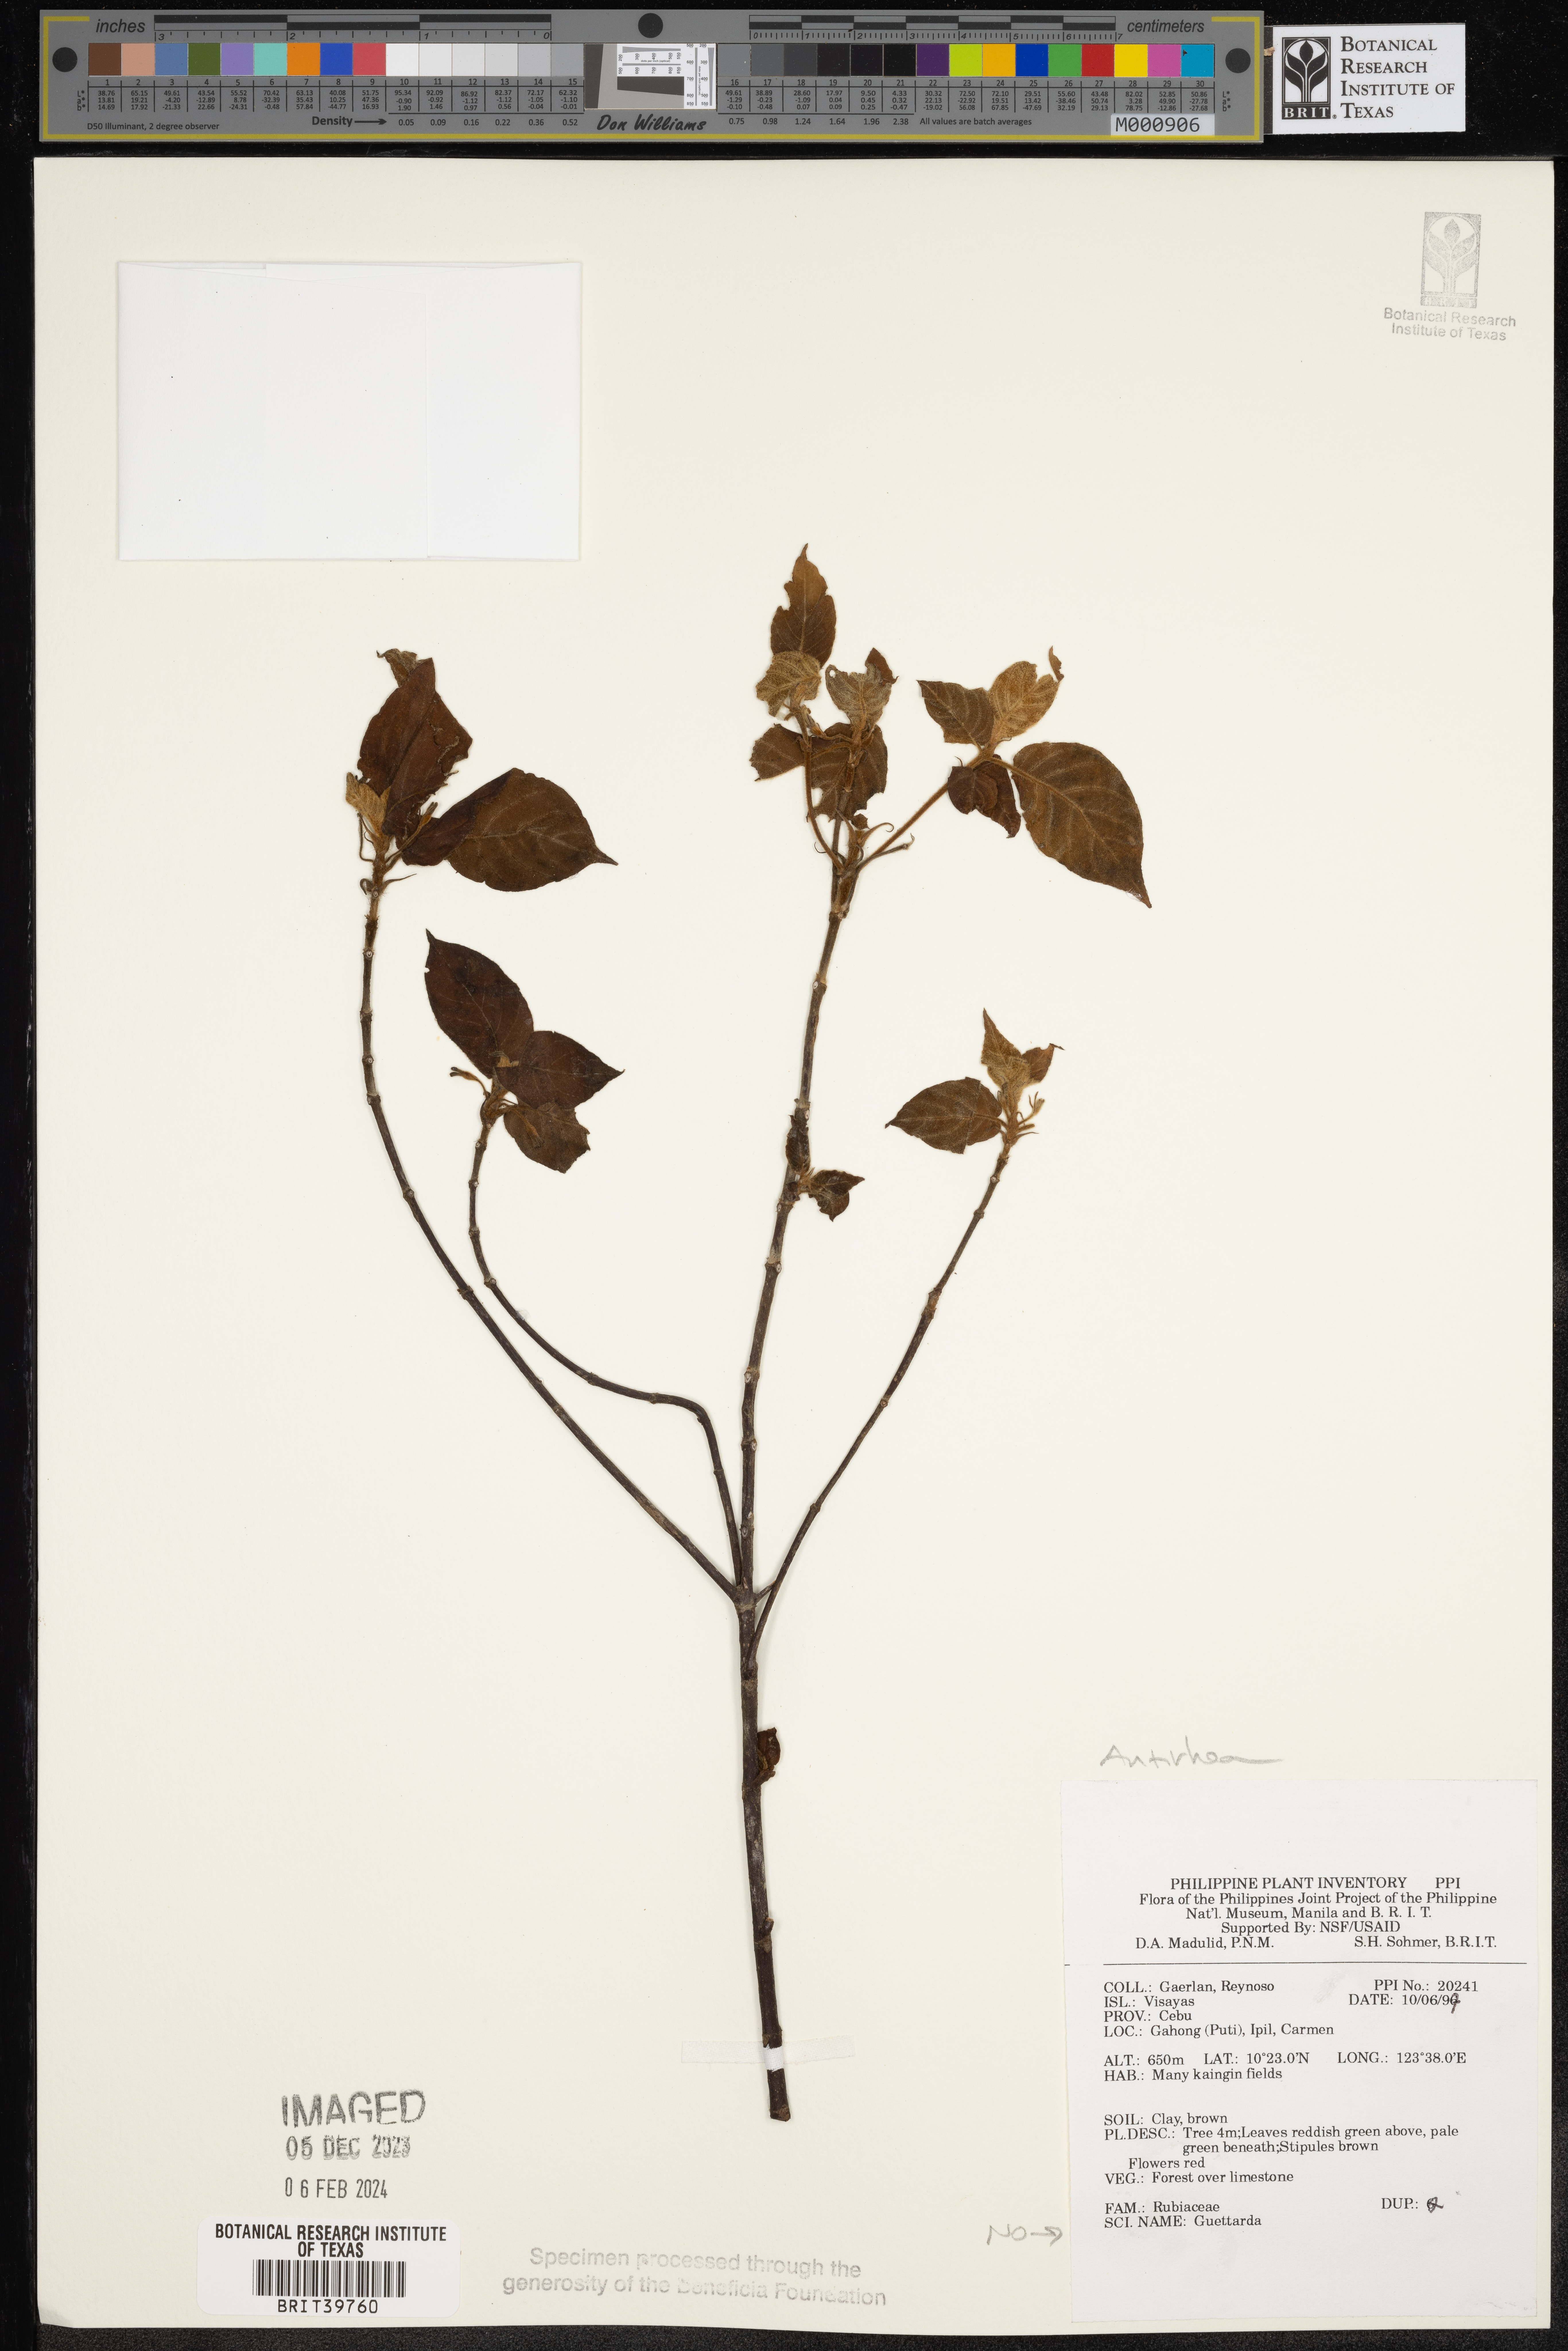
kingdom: Plantae
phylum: Tracheophyta
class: Magnoliopsida
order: Gentianales
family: Rubiaceae
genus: Antirhea
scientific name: Antirhea
